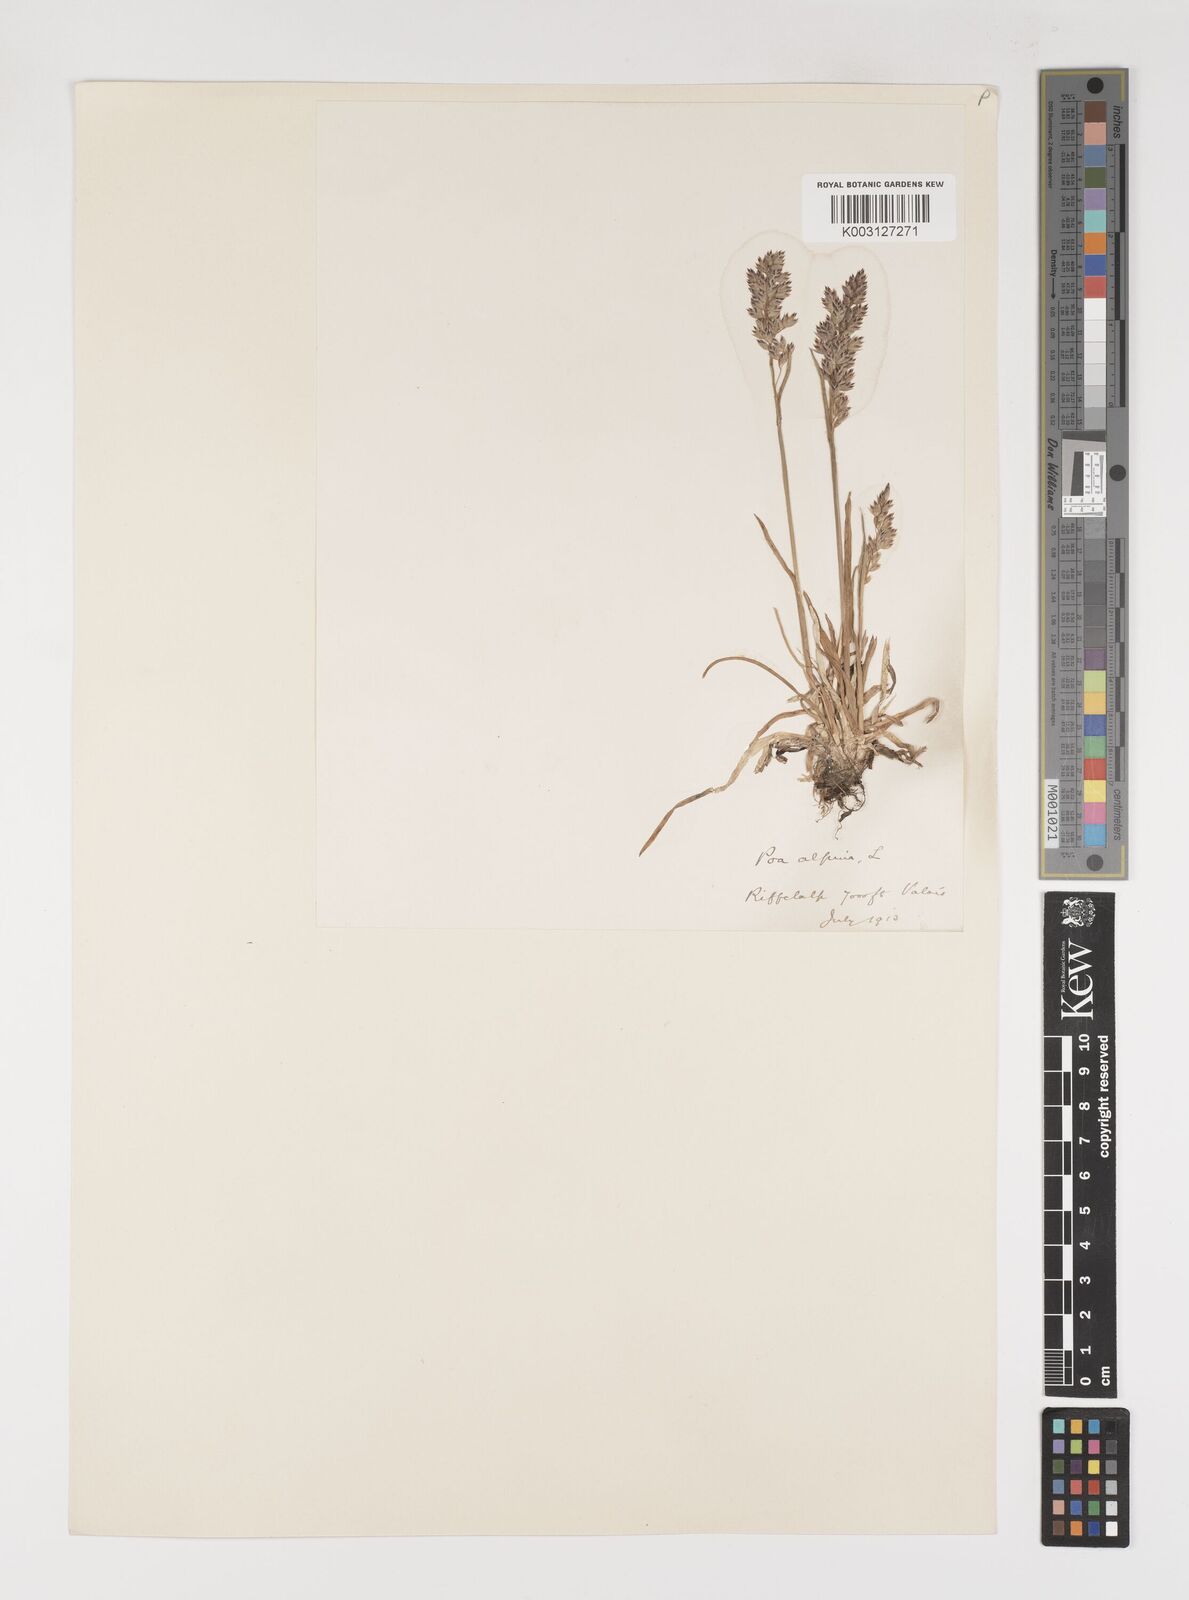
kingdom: Plantae
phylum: Tracheophyta
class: Liliopsida
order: Poales
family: Poaceae
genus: Poa
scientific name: Poa alpina
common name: Alpine bluegrass
